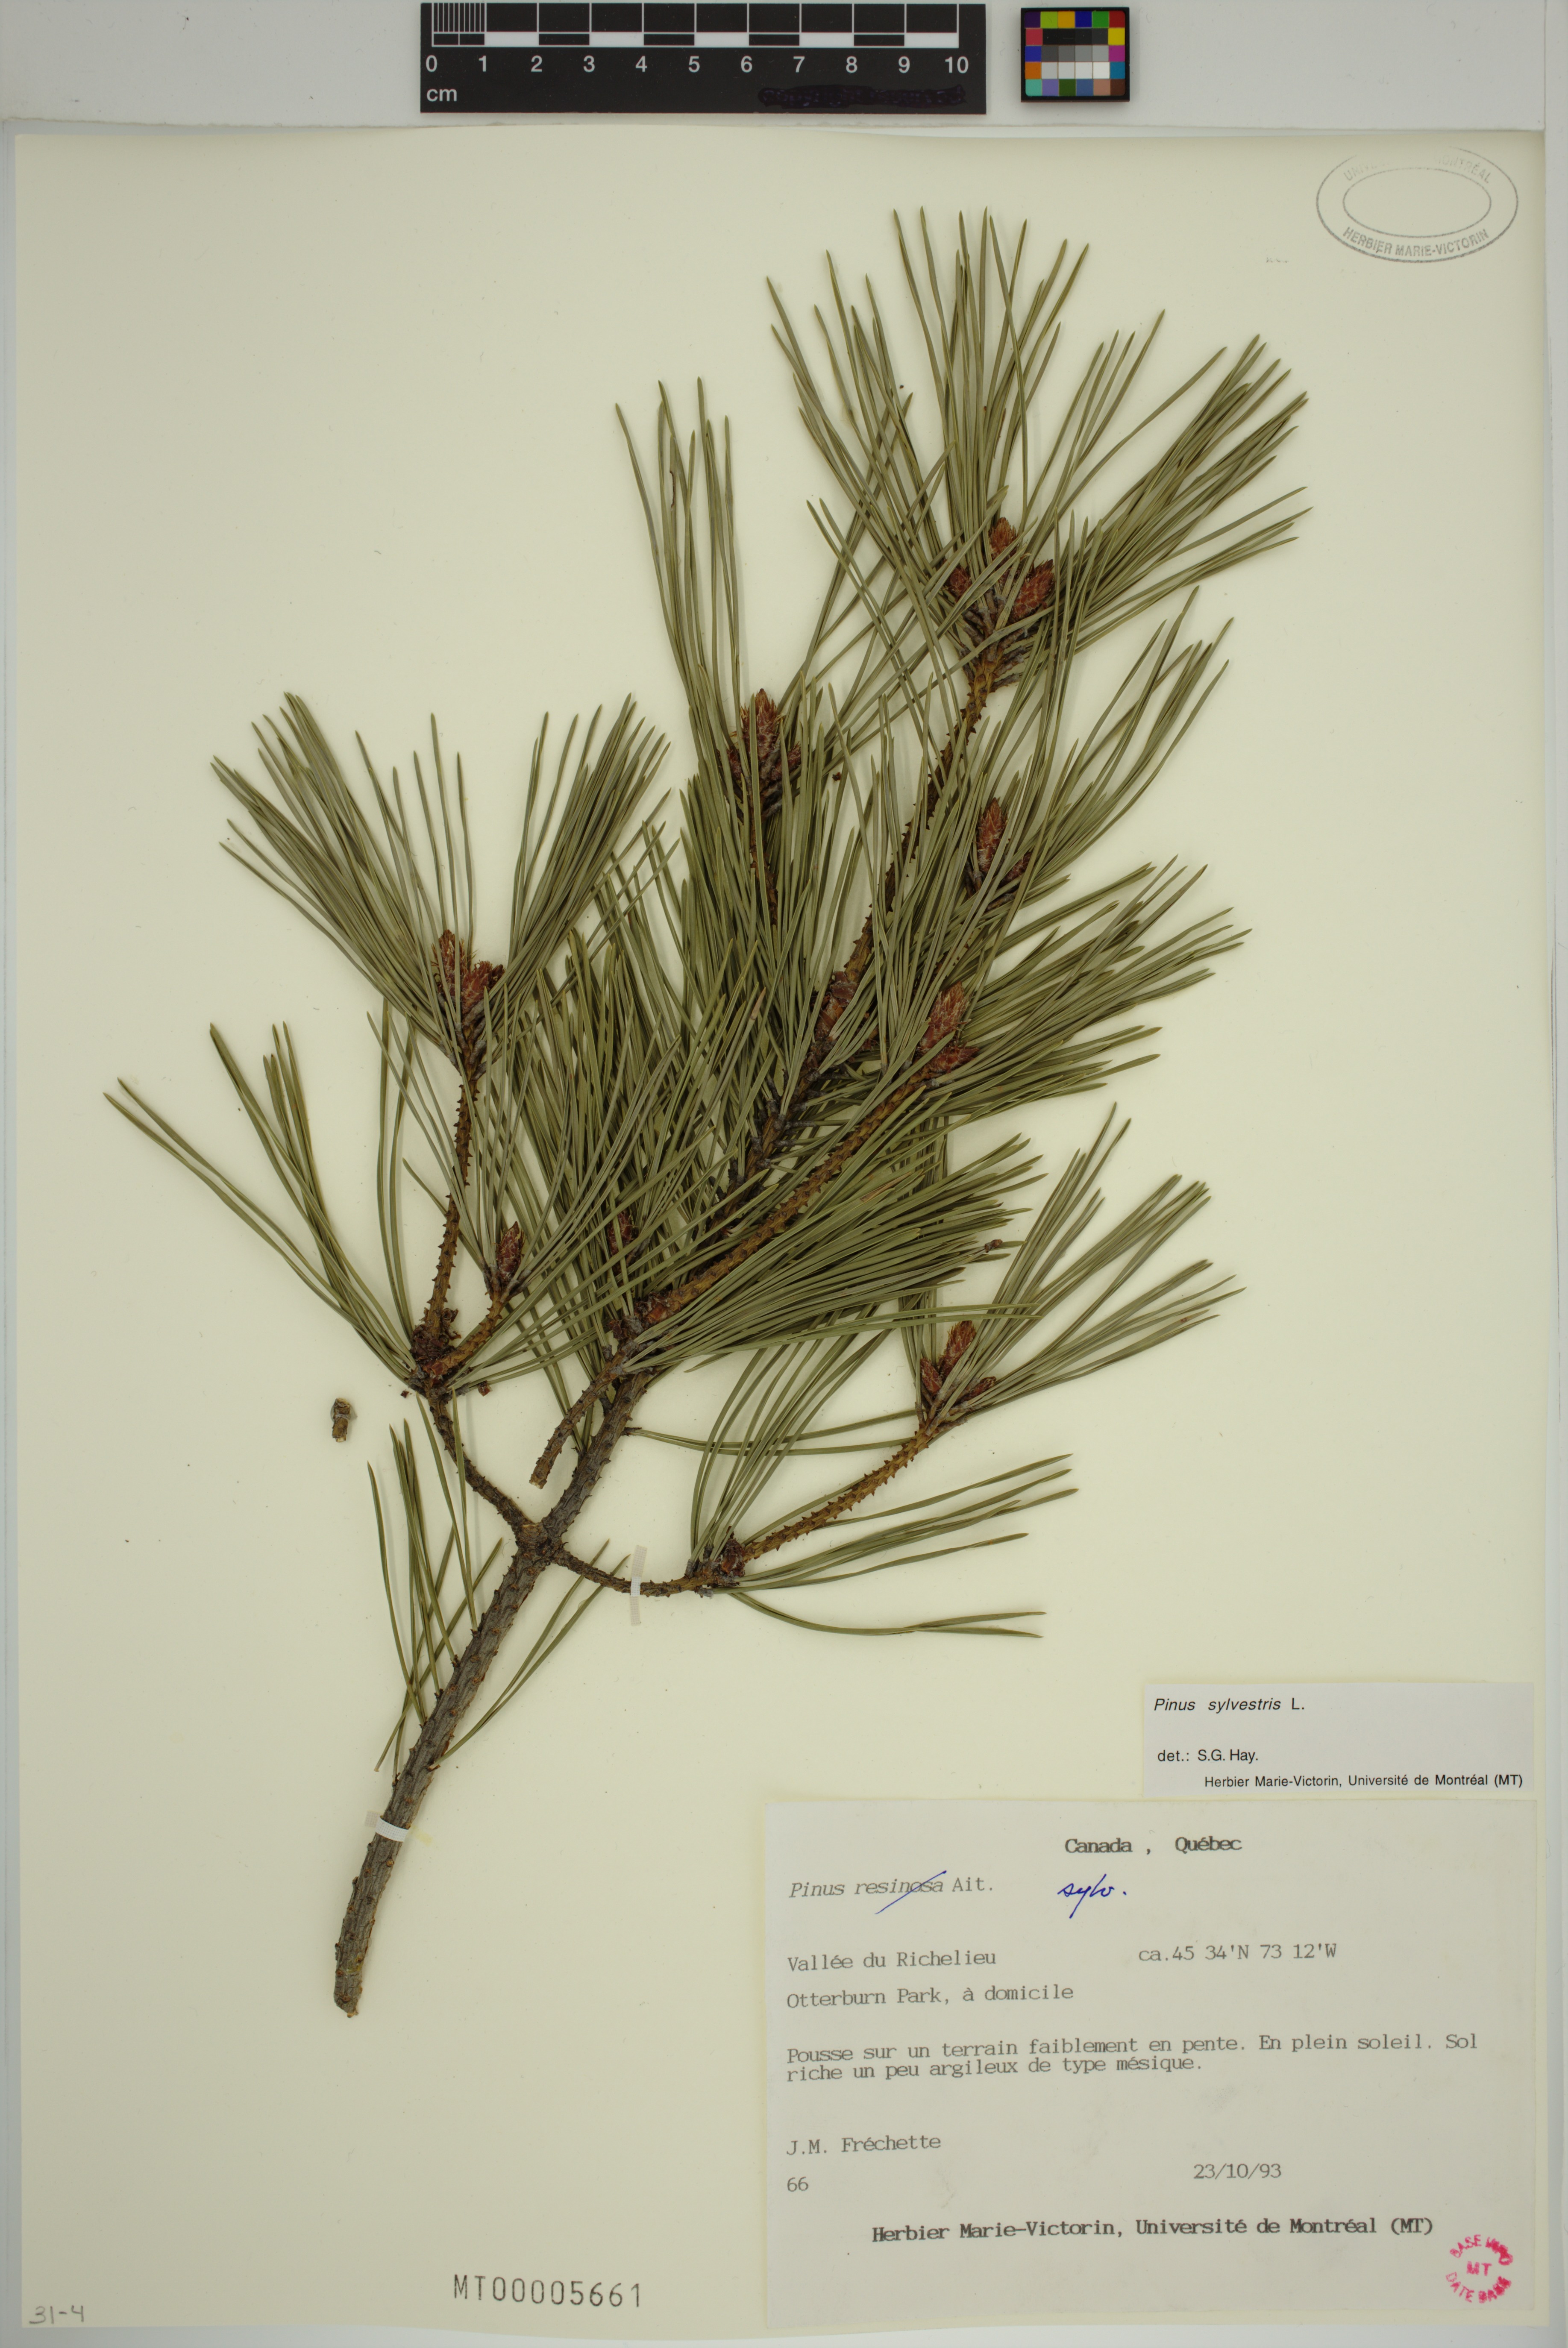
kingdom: Plantae
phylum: Tracheophyta
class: Pinopsida
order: Pinales
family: Pinaceae
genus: Pinus
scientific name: Pinus sylvestris
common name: Scots pine
